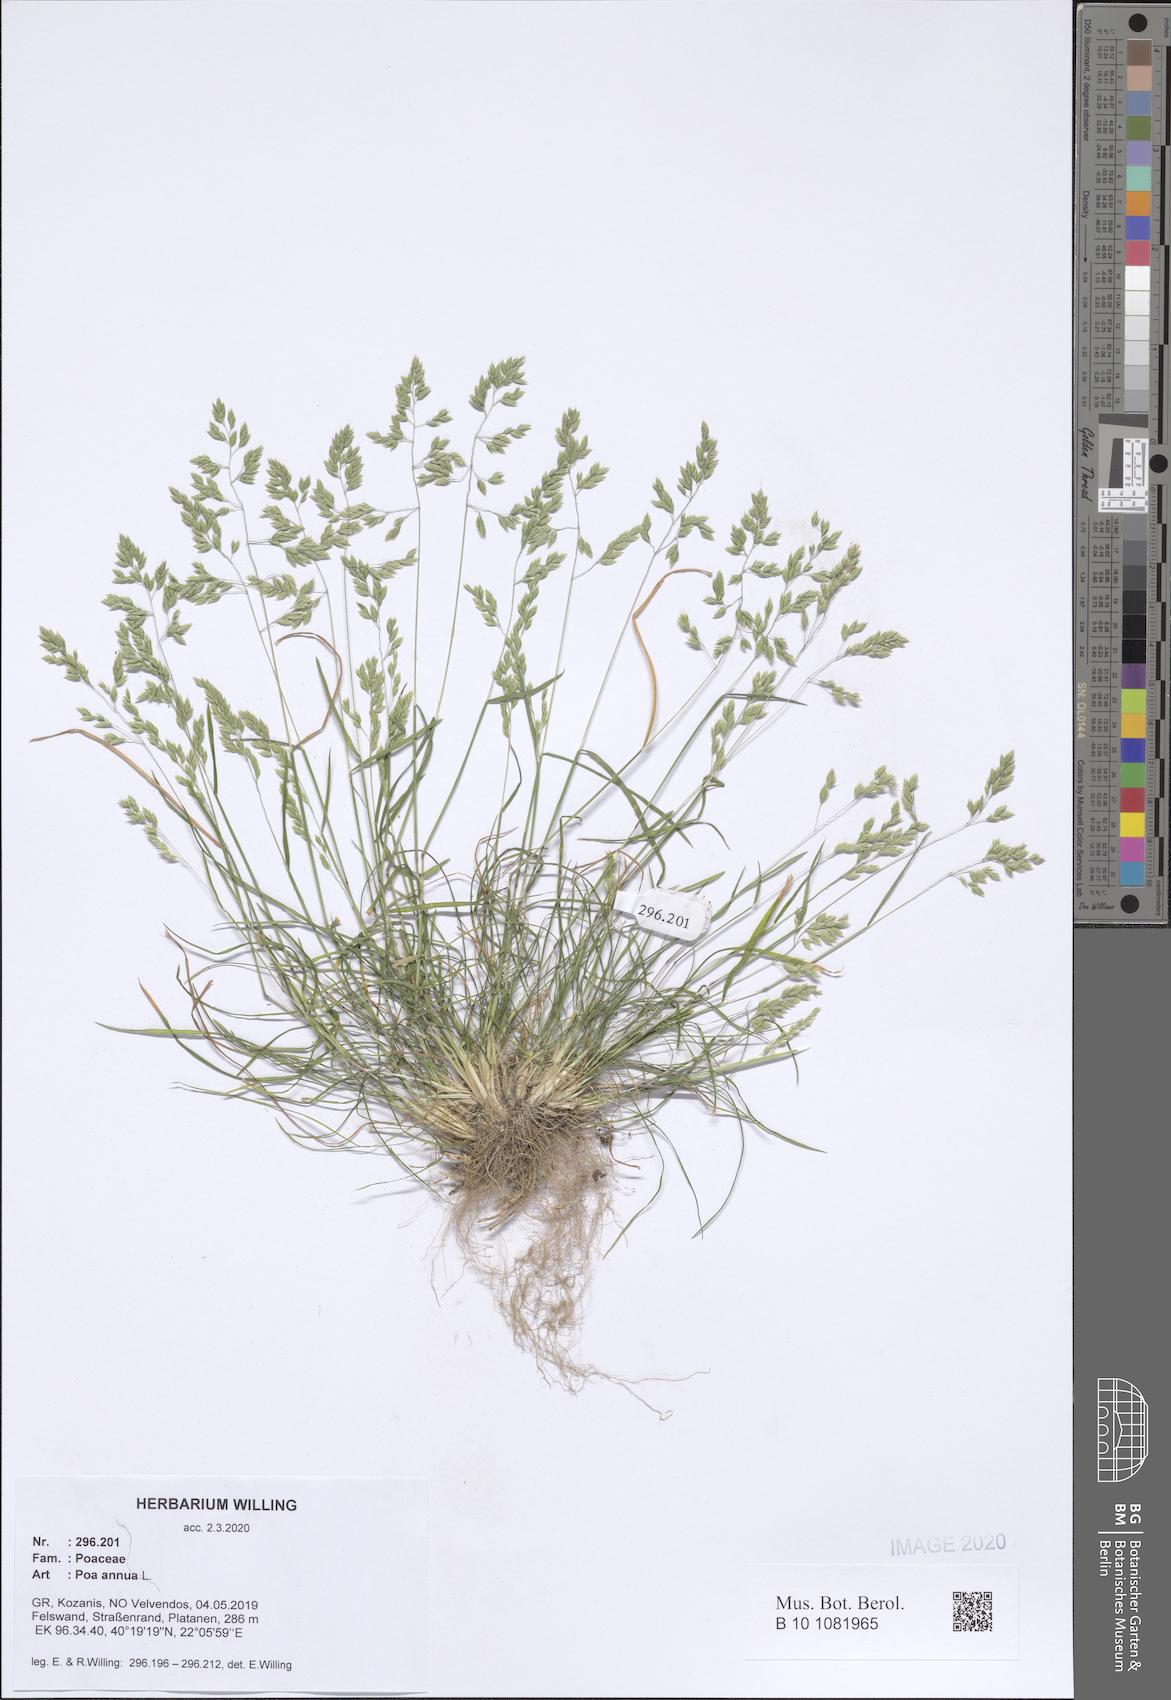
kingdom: Plantae
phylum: Tracheophyta
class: Liliopsida
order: Poales
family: Poaceae
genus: Poa
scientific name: Poa annua
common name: Annual bluegrass
